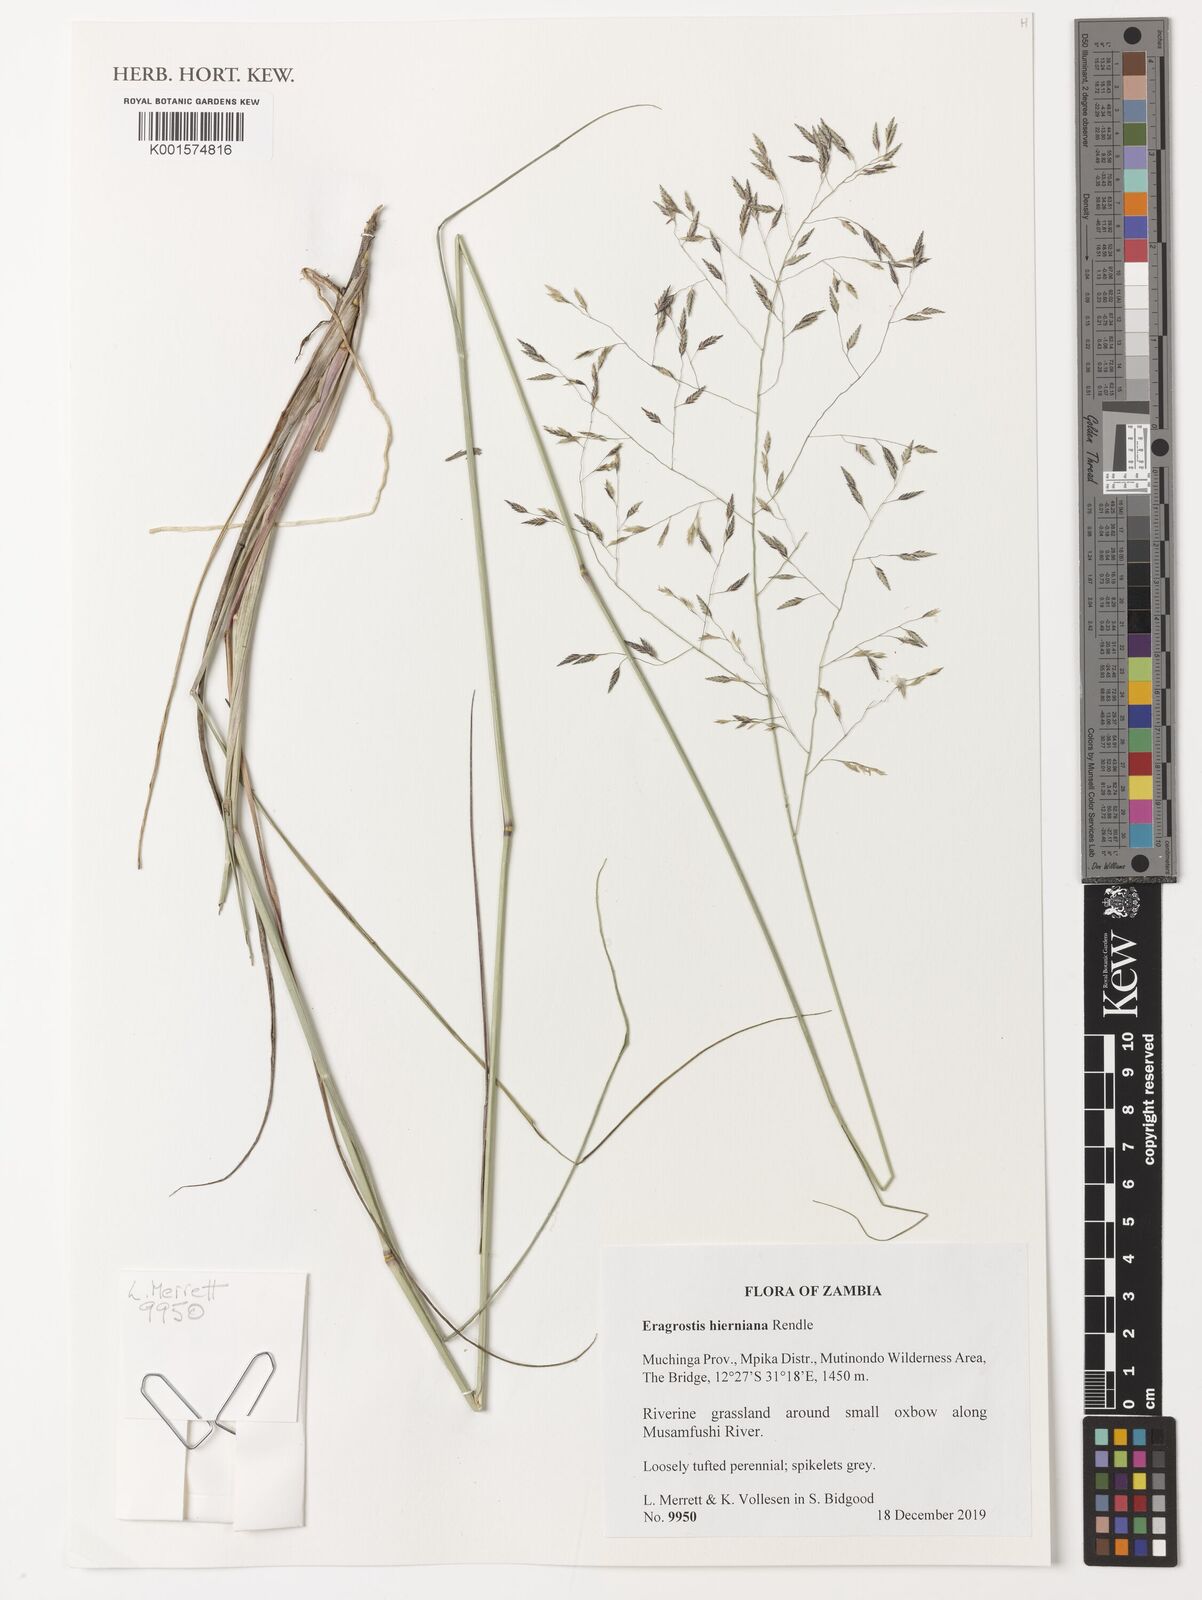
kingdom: Plantae
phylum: Tracheophyta
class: Liliopsida
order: Poales
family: Poaceae
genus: Eragrostis
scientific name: Eragrostis hierniana
